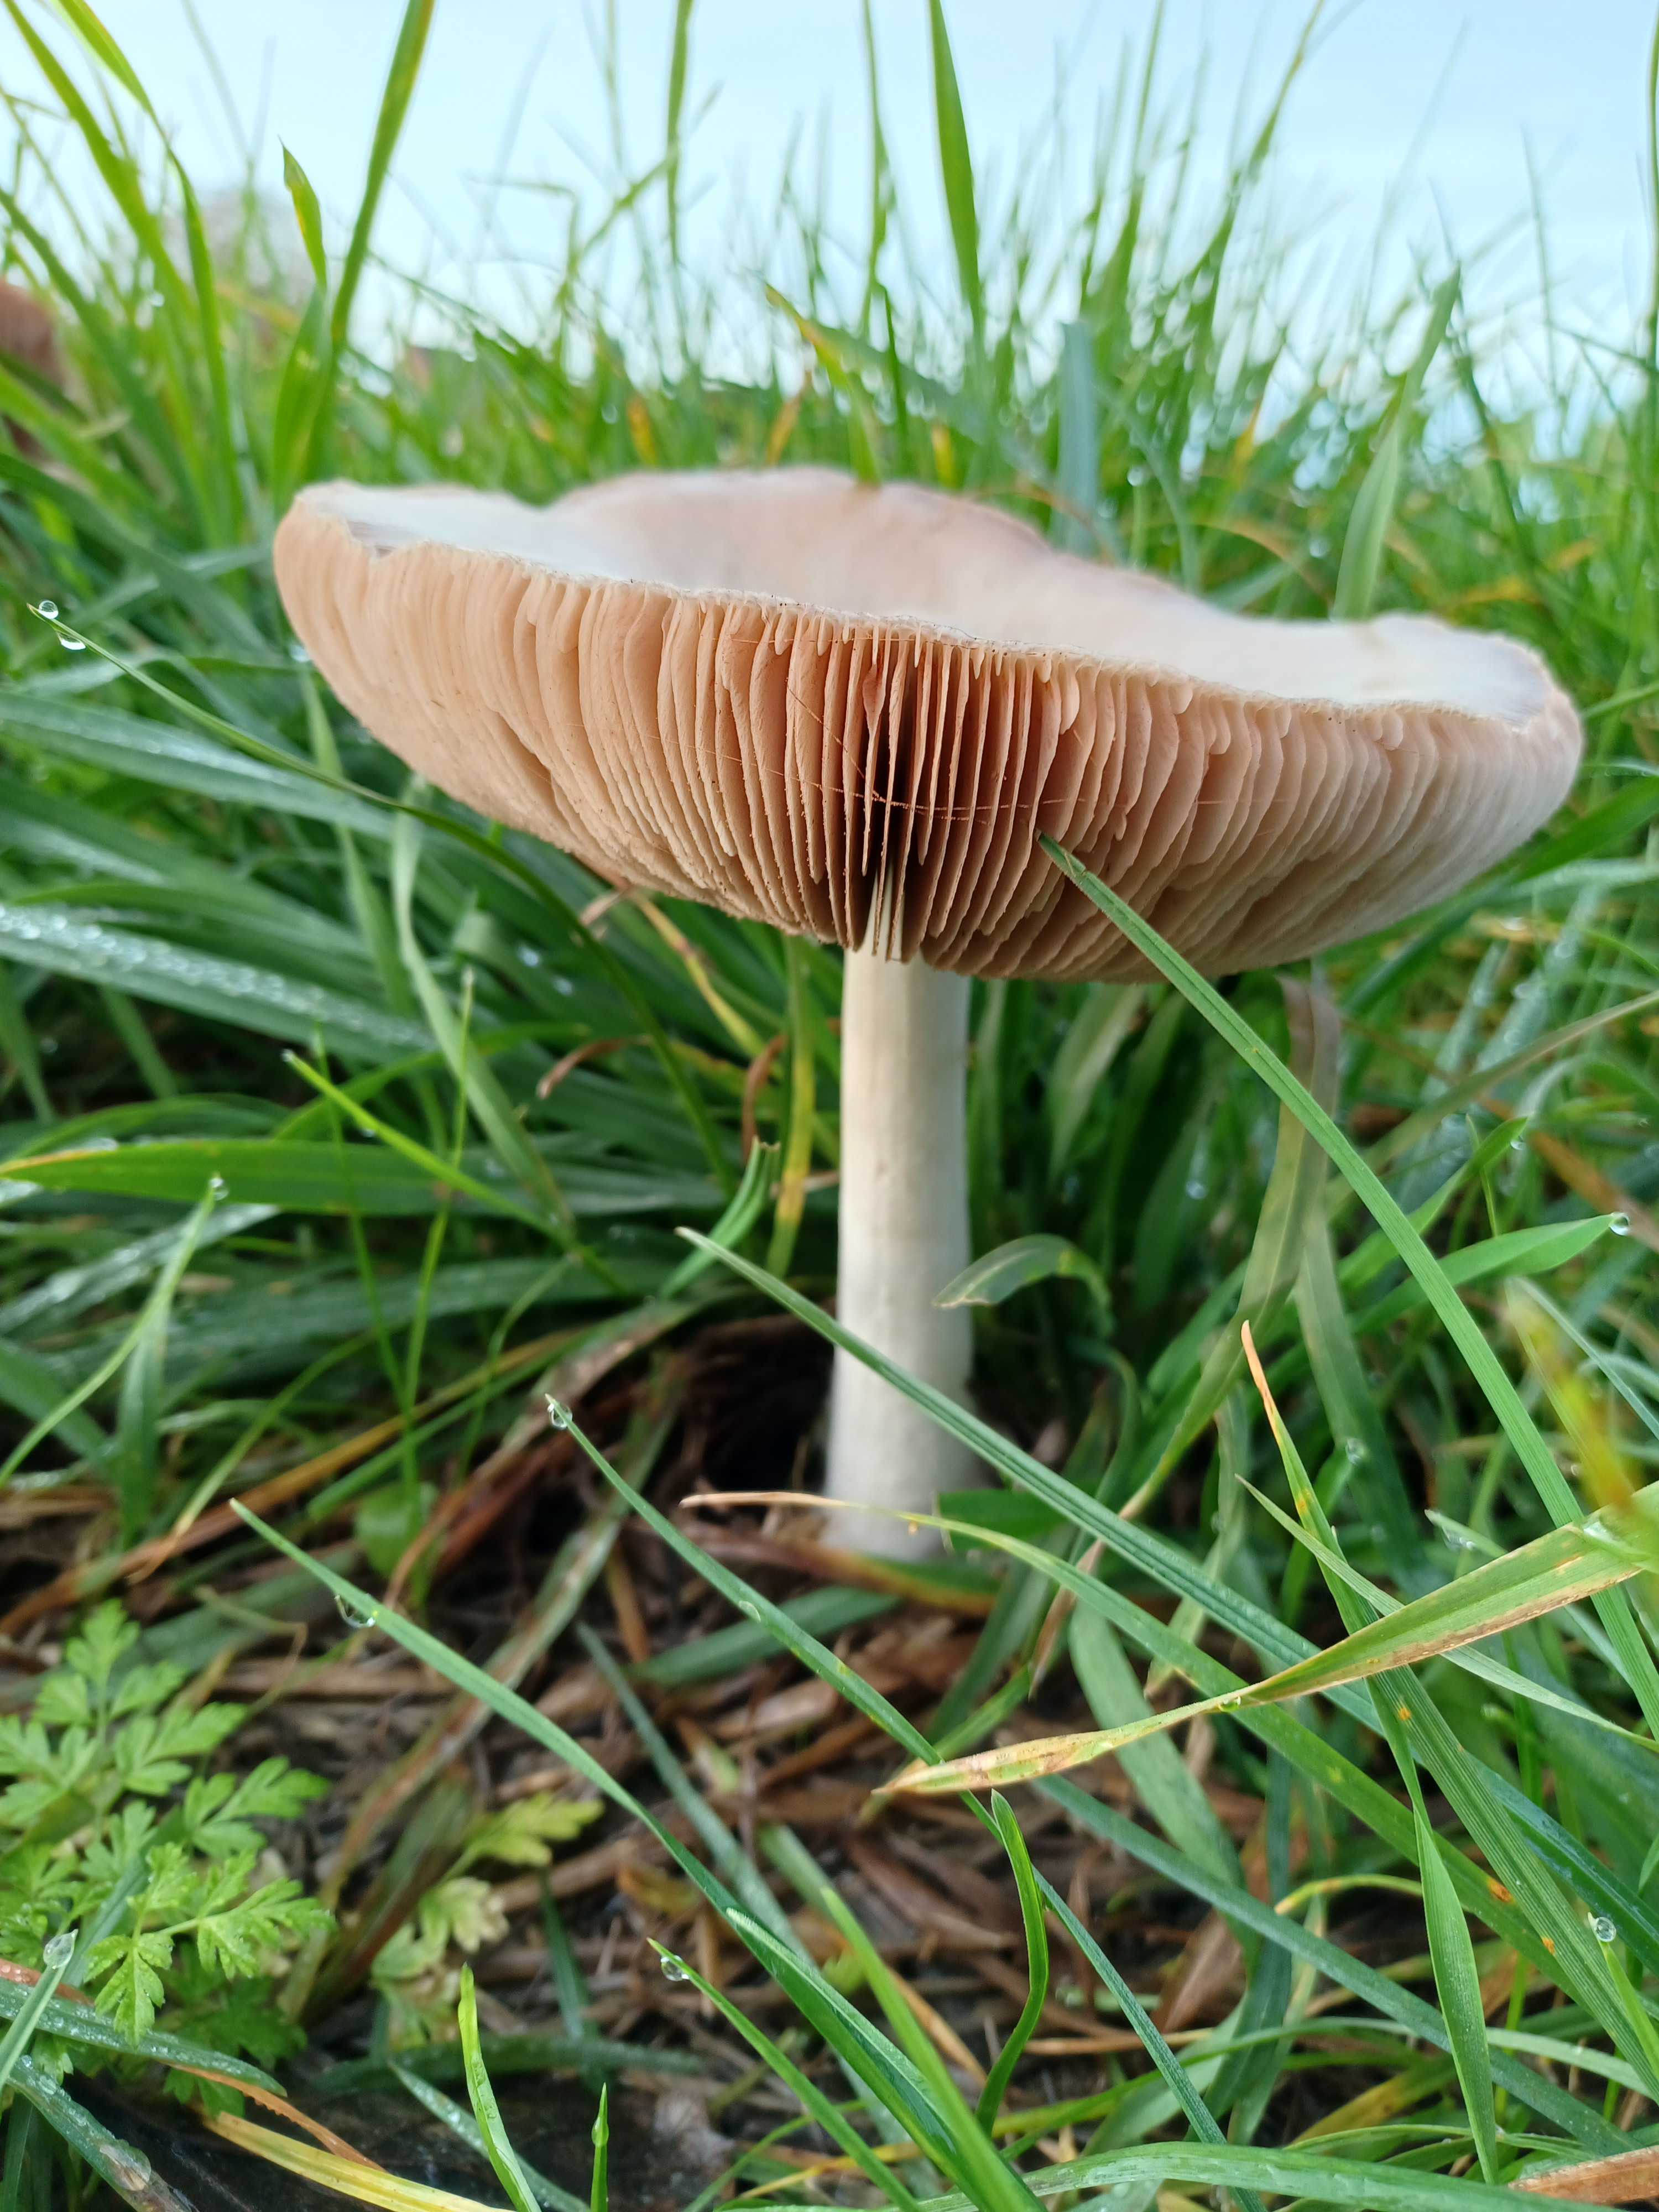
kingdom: Fungi
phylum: Basidiomycota
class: Agaricomycetes
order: Agaricales
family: Pluteaceae
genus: Volvopluteus
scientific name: Volvopluteus gloiocephalus
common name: høj posesvamp
